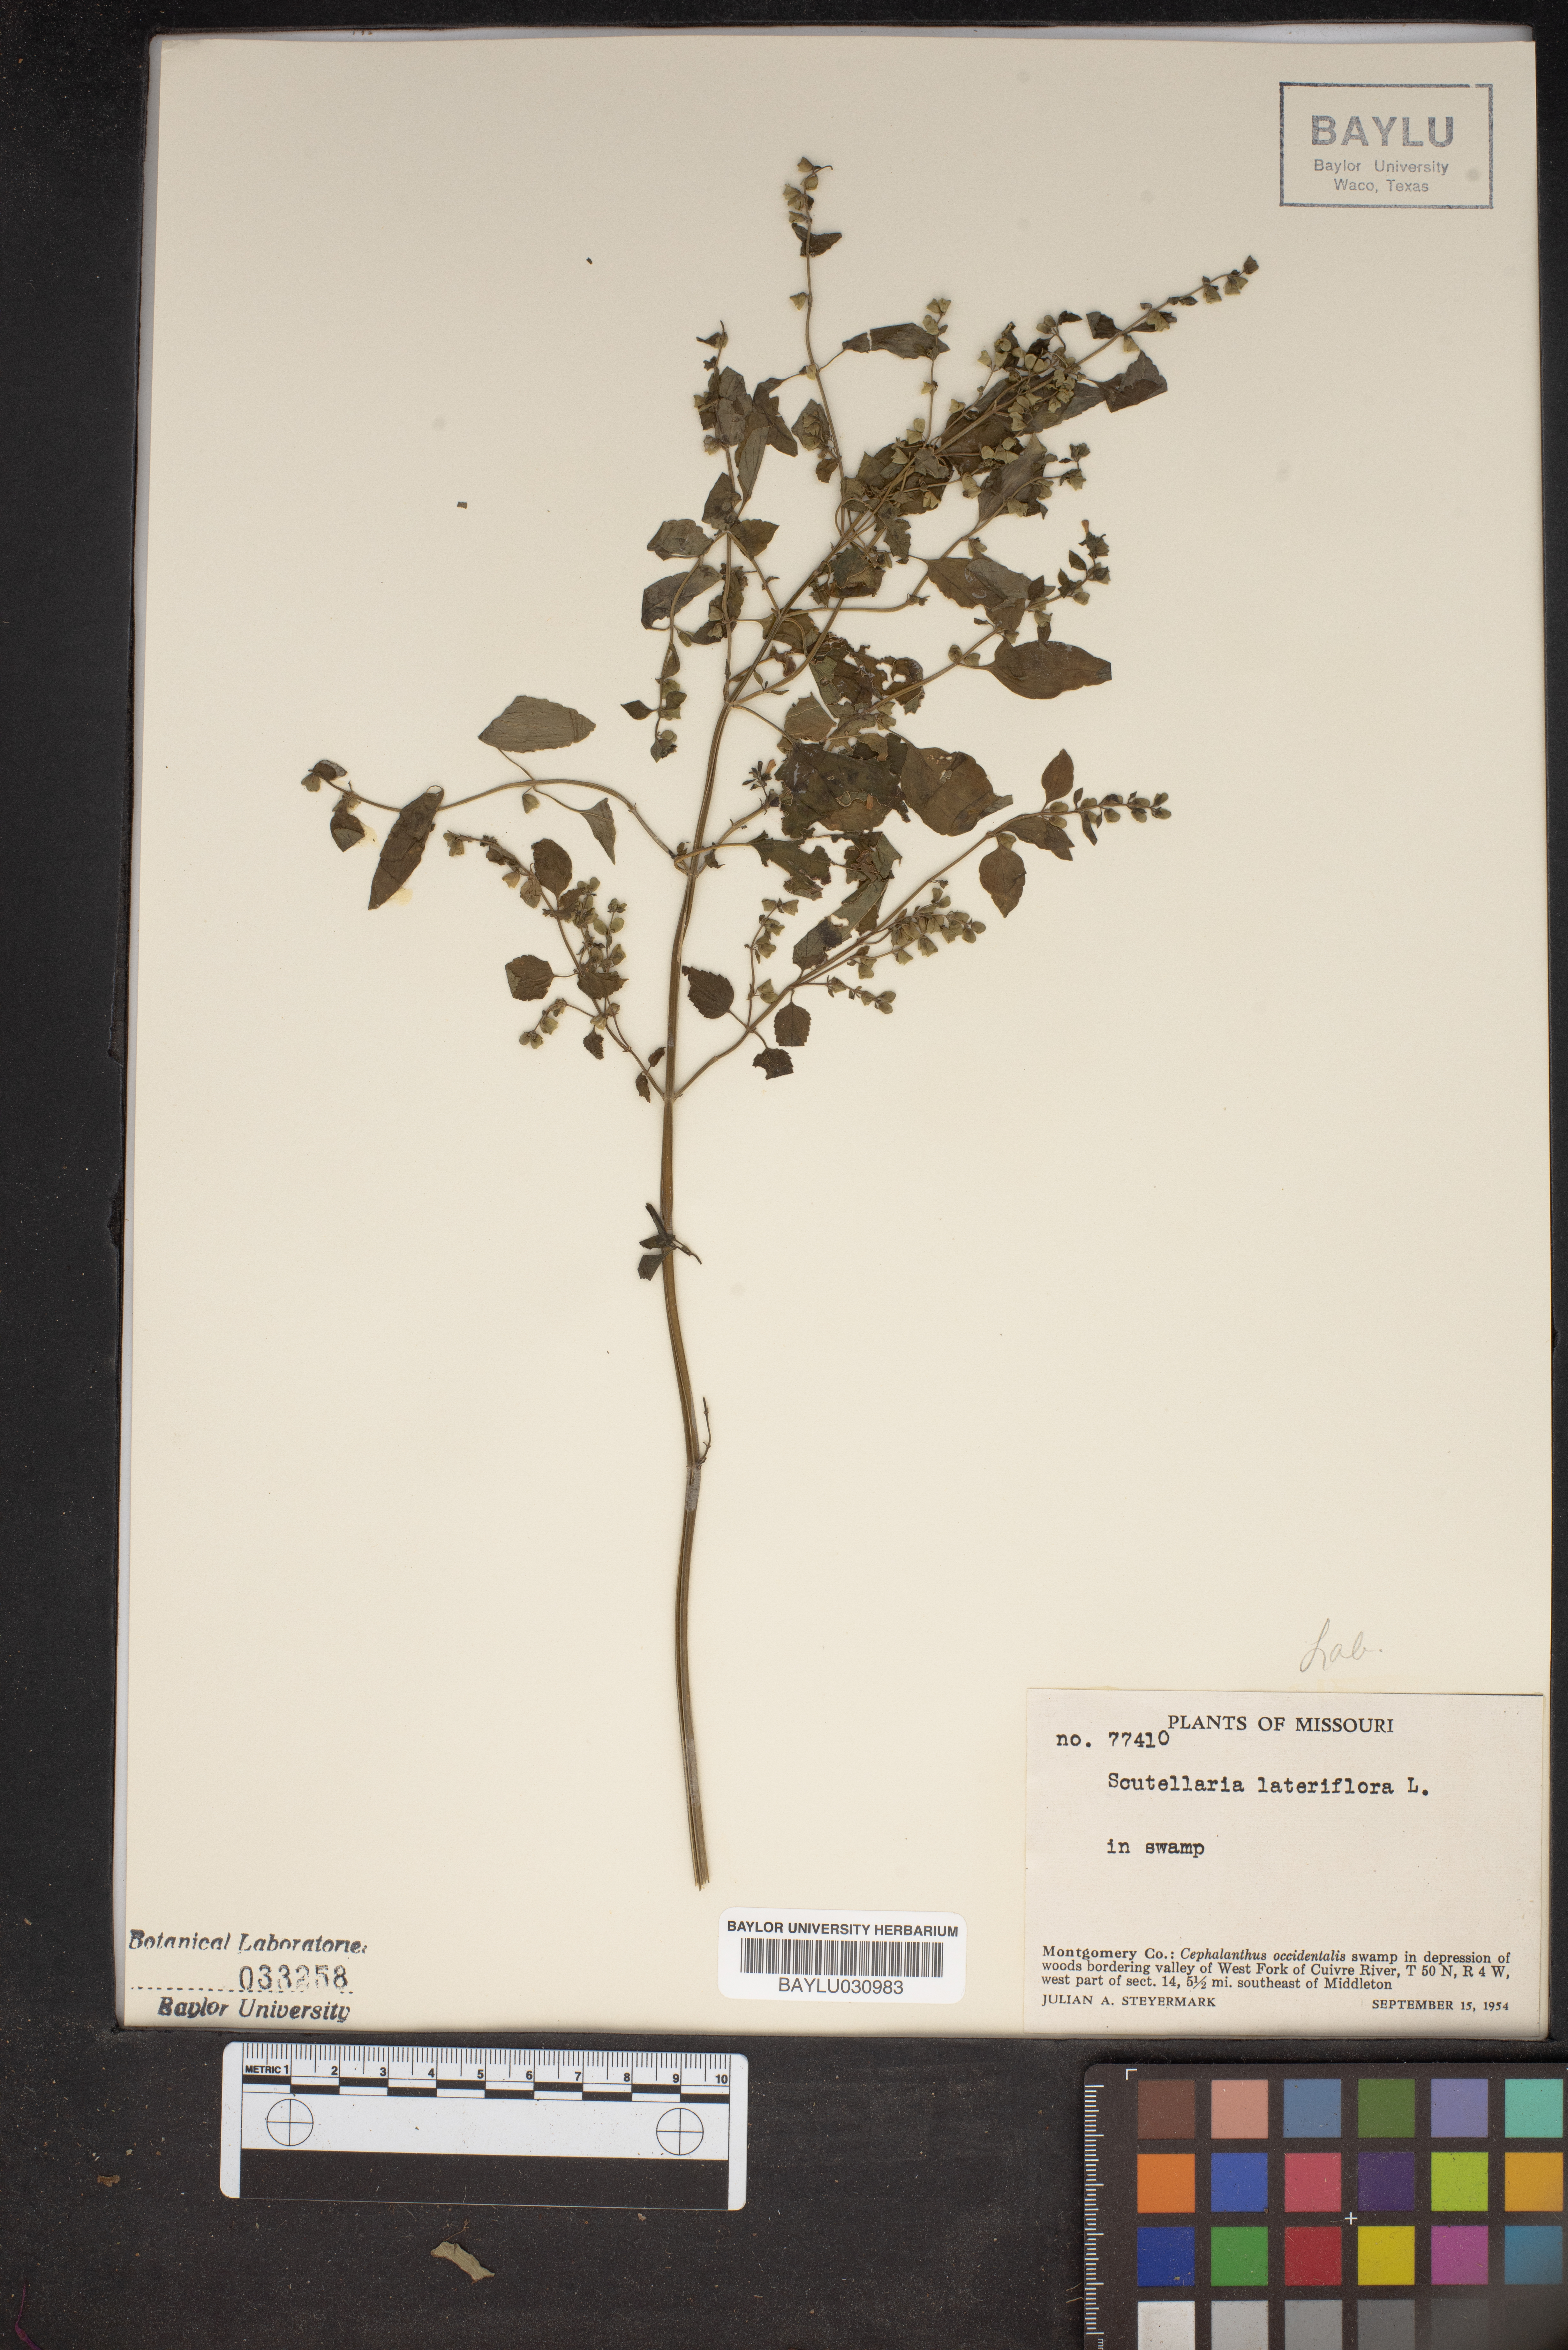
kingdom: Plantae
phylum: Tracheophyta
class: Magnoliopsida
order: Lamiales
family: Lamiaceae
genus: Scutellaria
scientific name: Scutellaria lateriflora
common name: Blue skullcap
